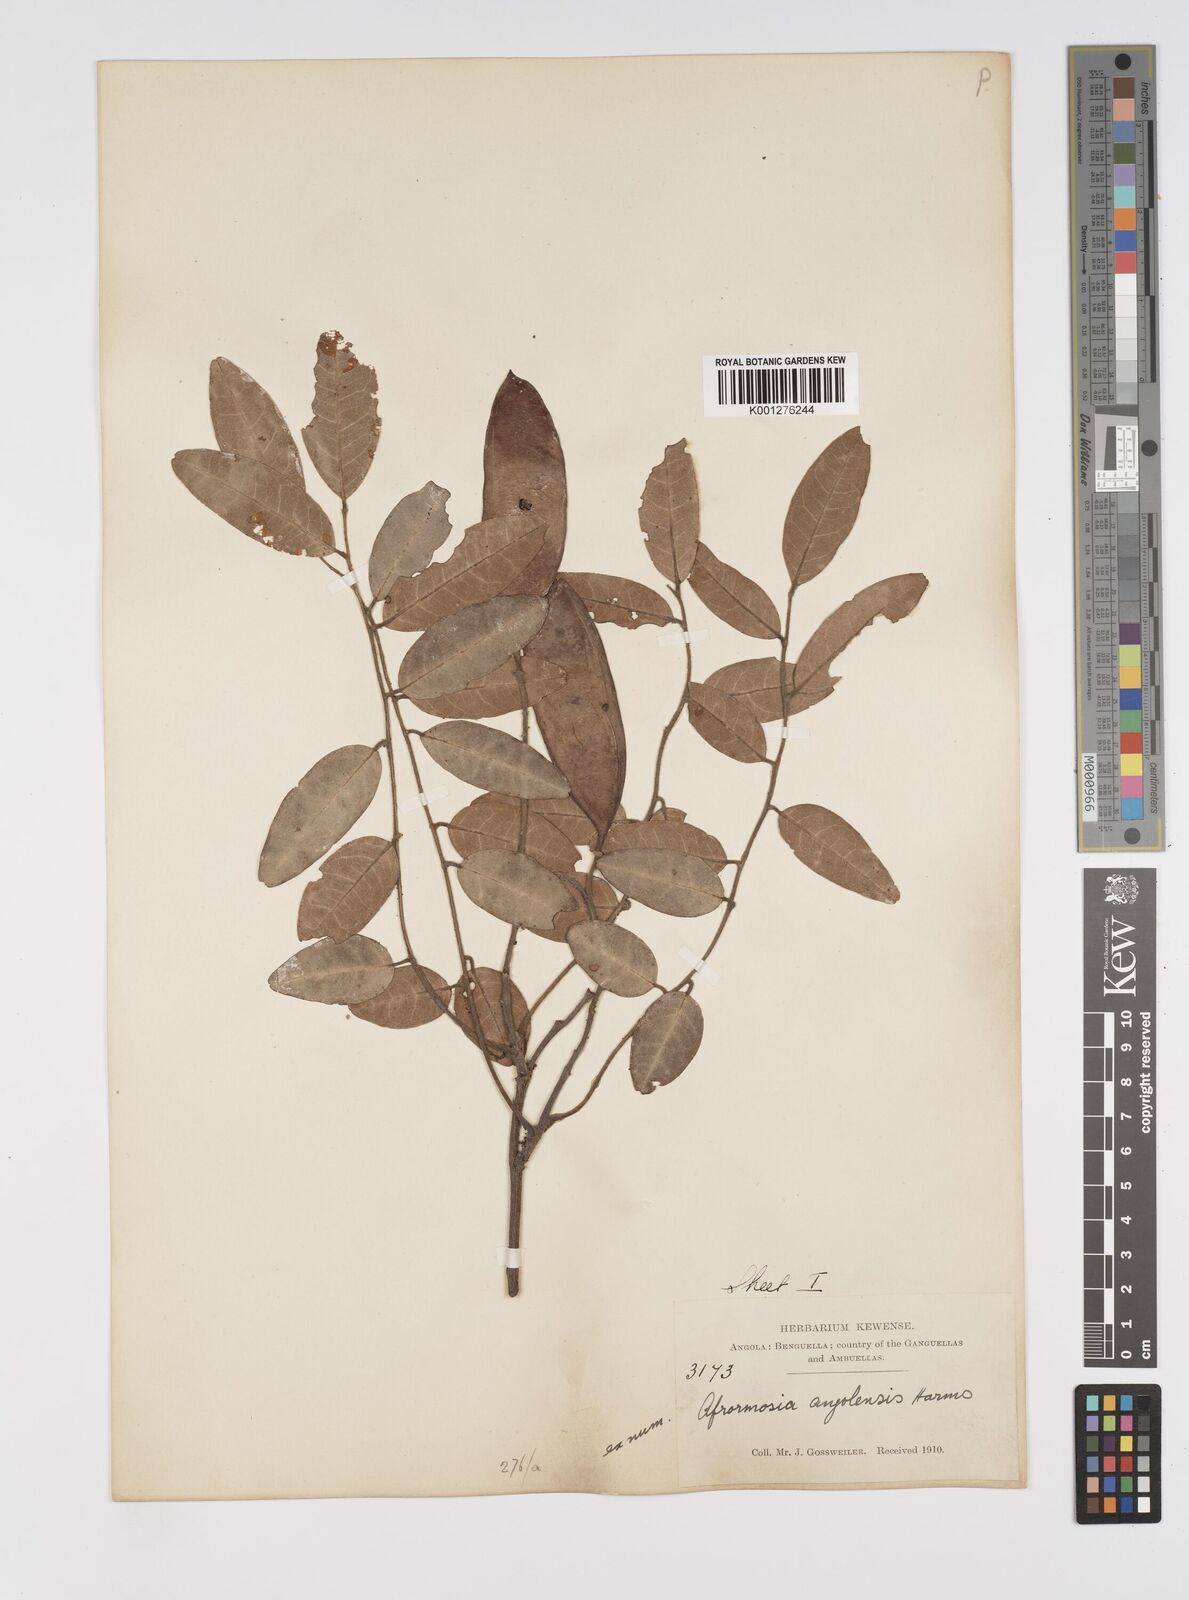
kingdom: Plantae
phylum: Tracheophyta
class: Magnoliopsida
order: Fabales
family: Fabaceae
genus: Pericopsis
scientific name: Pericopsis angolensis
